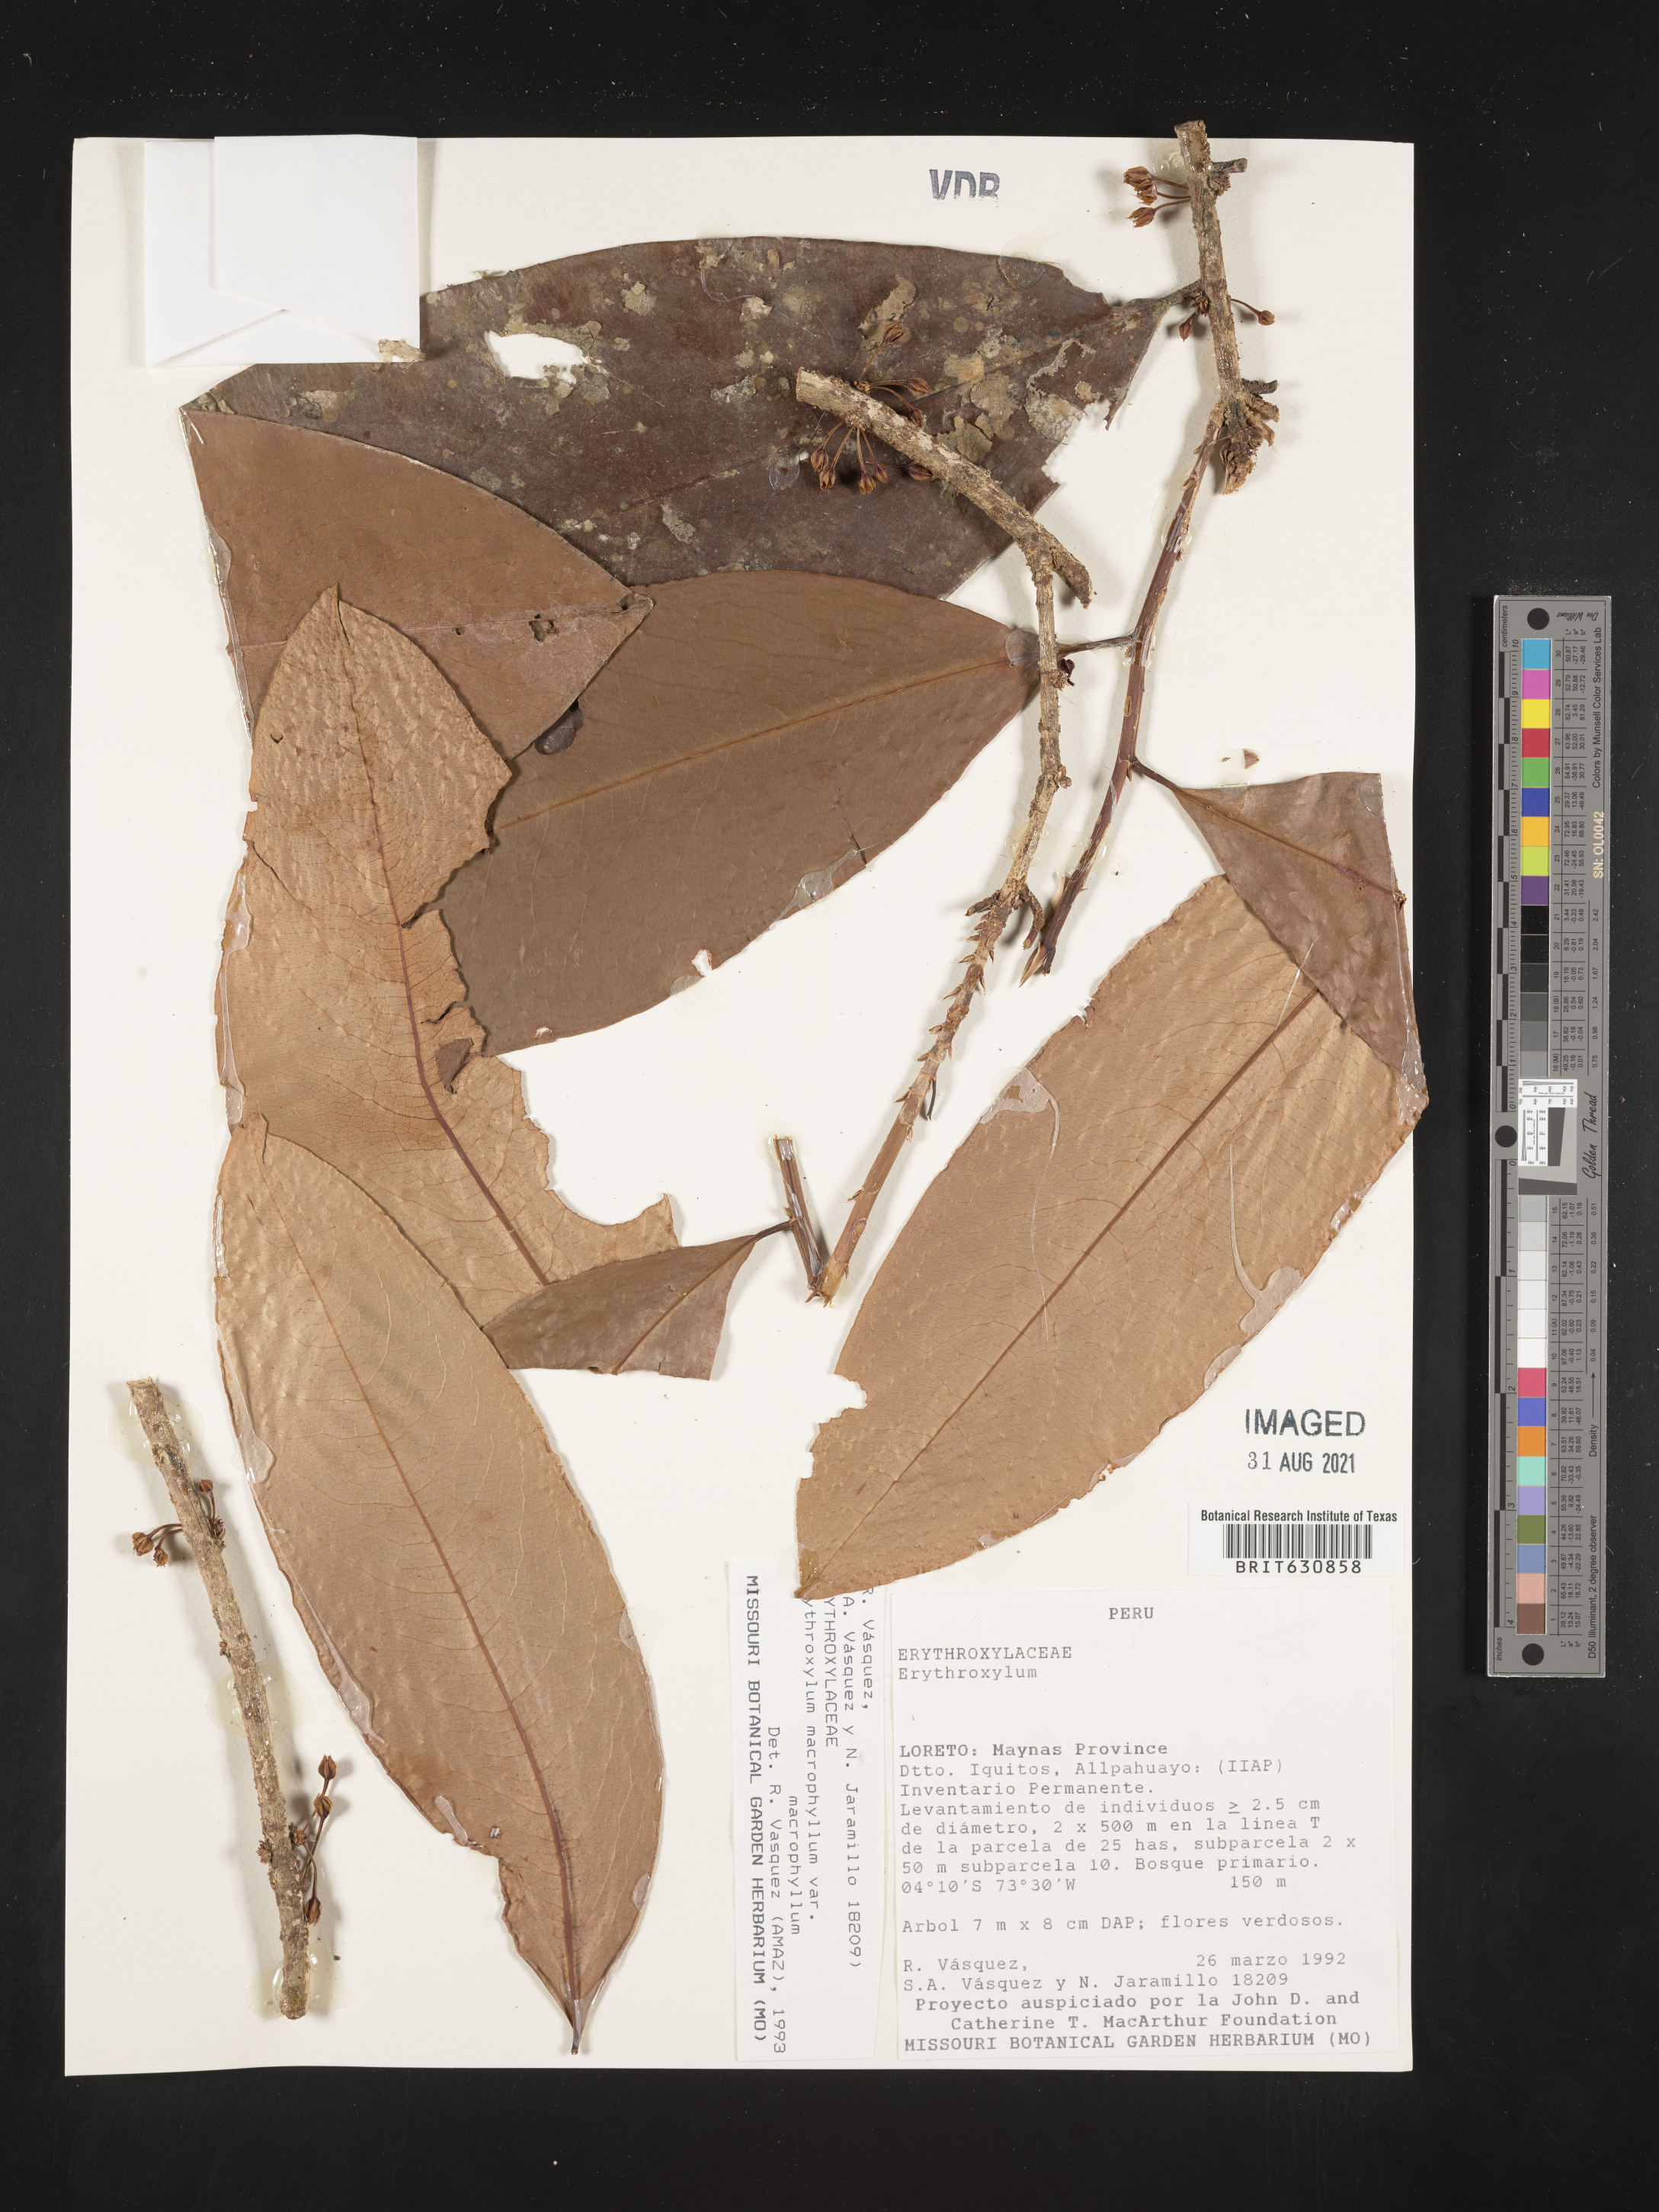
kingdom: Plantae
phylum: Tracheophyta
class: Magnoliopsida
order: Malpighiales
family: Erythroxylaceae
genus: Erythroxylum
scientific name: Erythroxylum
